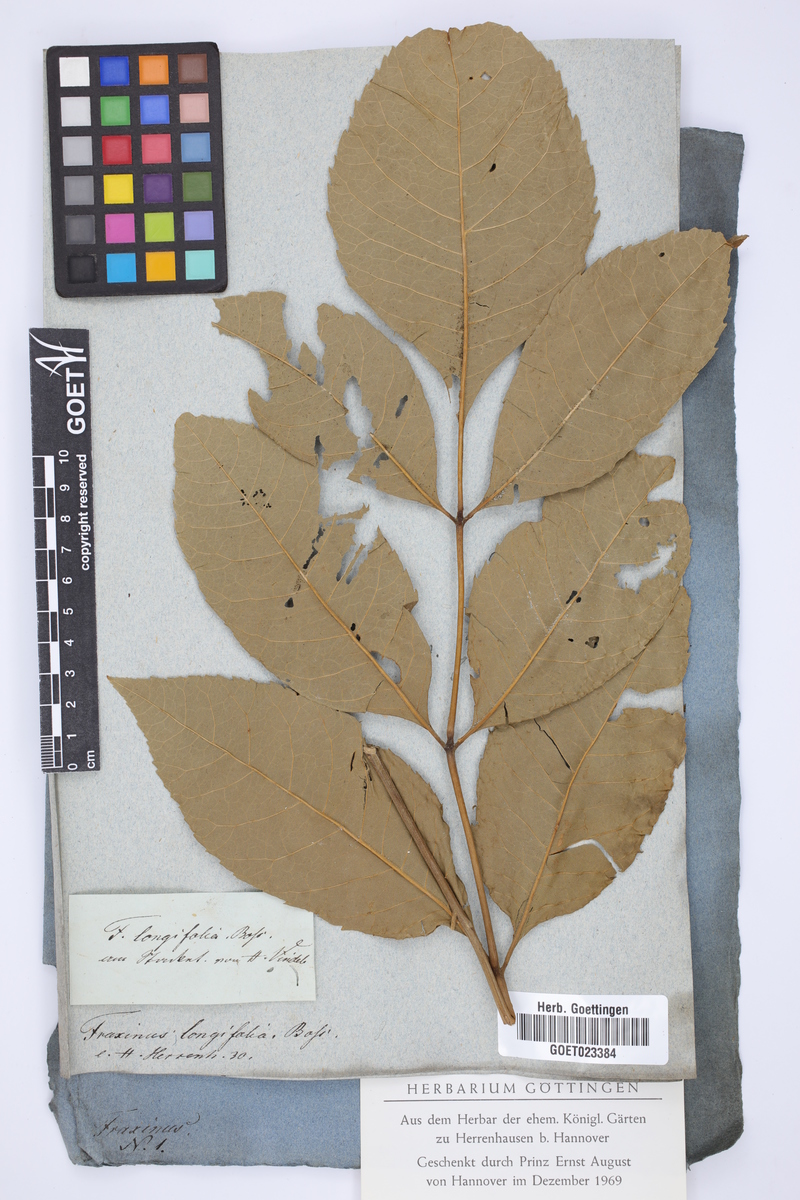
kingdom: Plantae
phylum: Tracheophyta
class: Magnoliopsida
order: Lamiales
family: Oleaceae
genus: Fraxinus
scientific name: Fraxinus pennsylvanica
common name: Green ash
